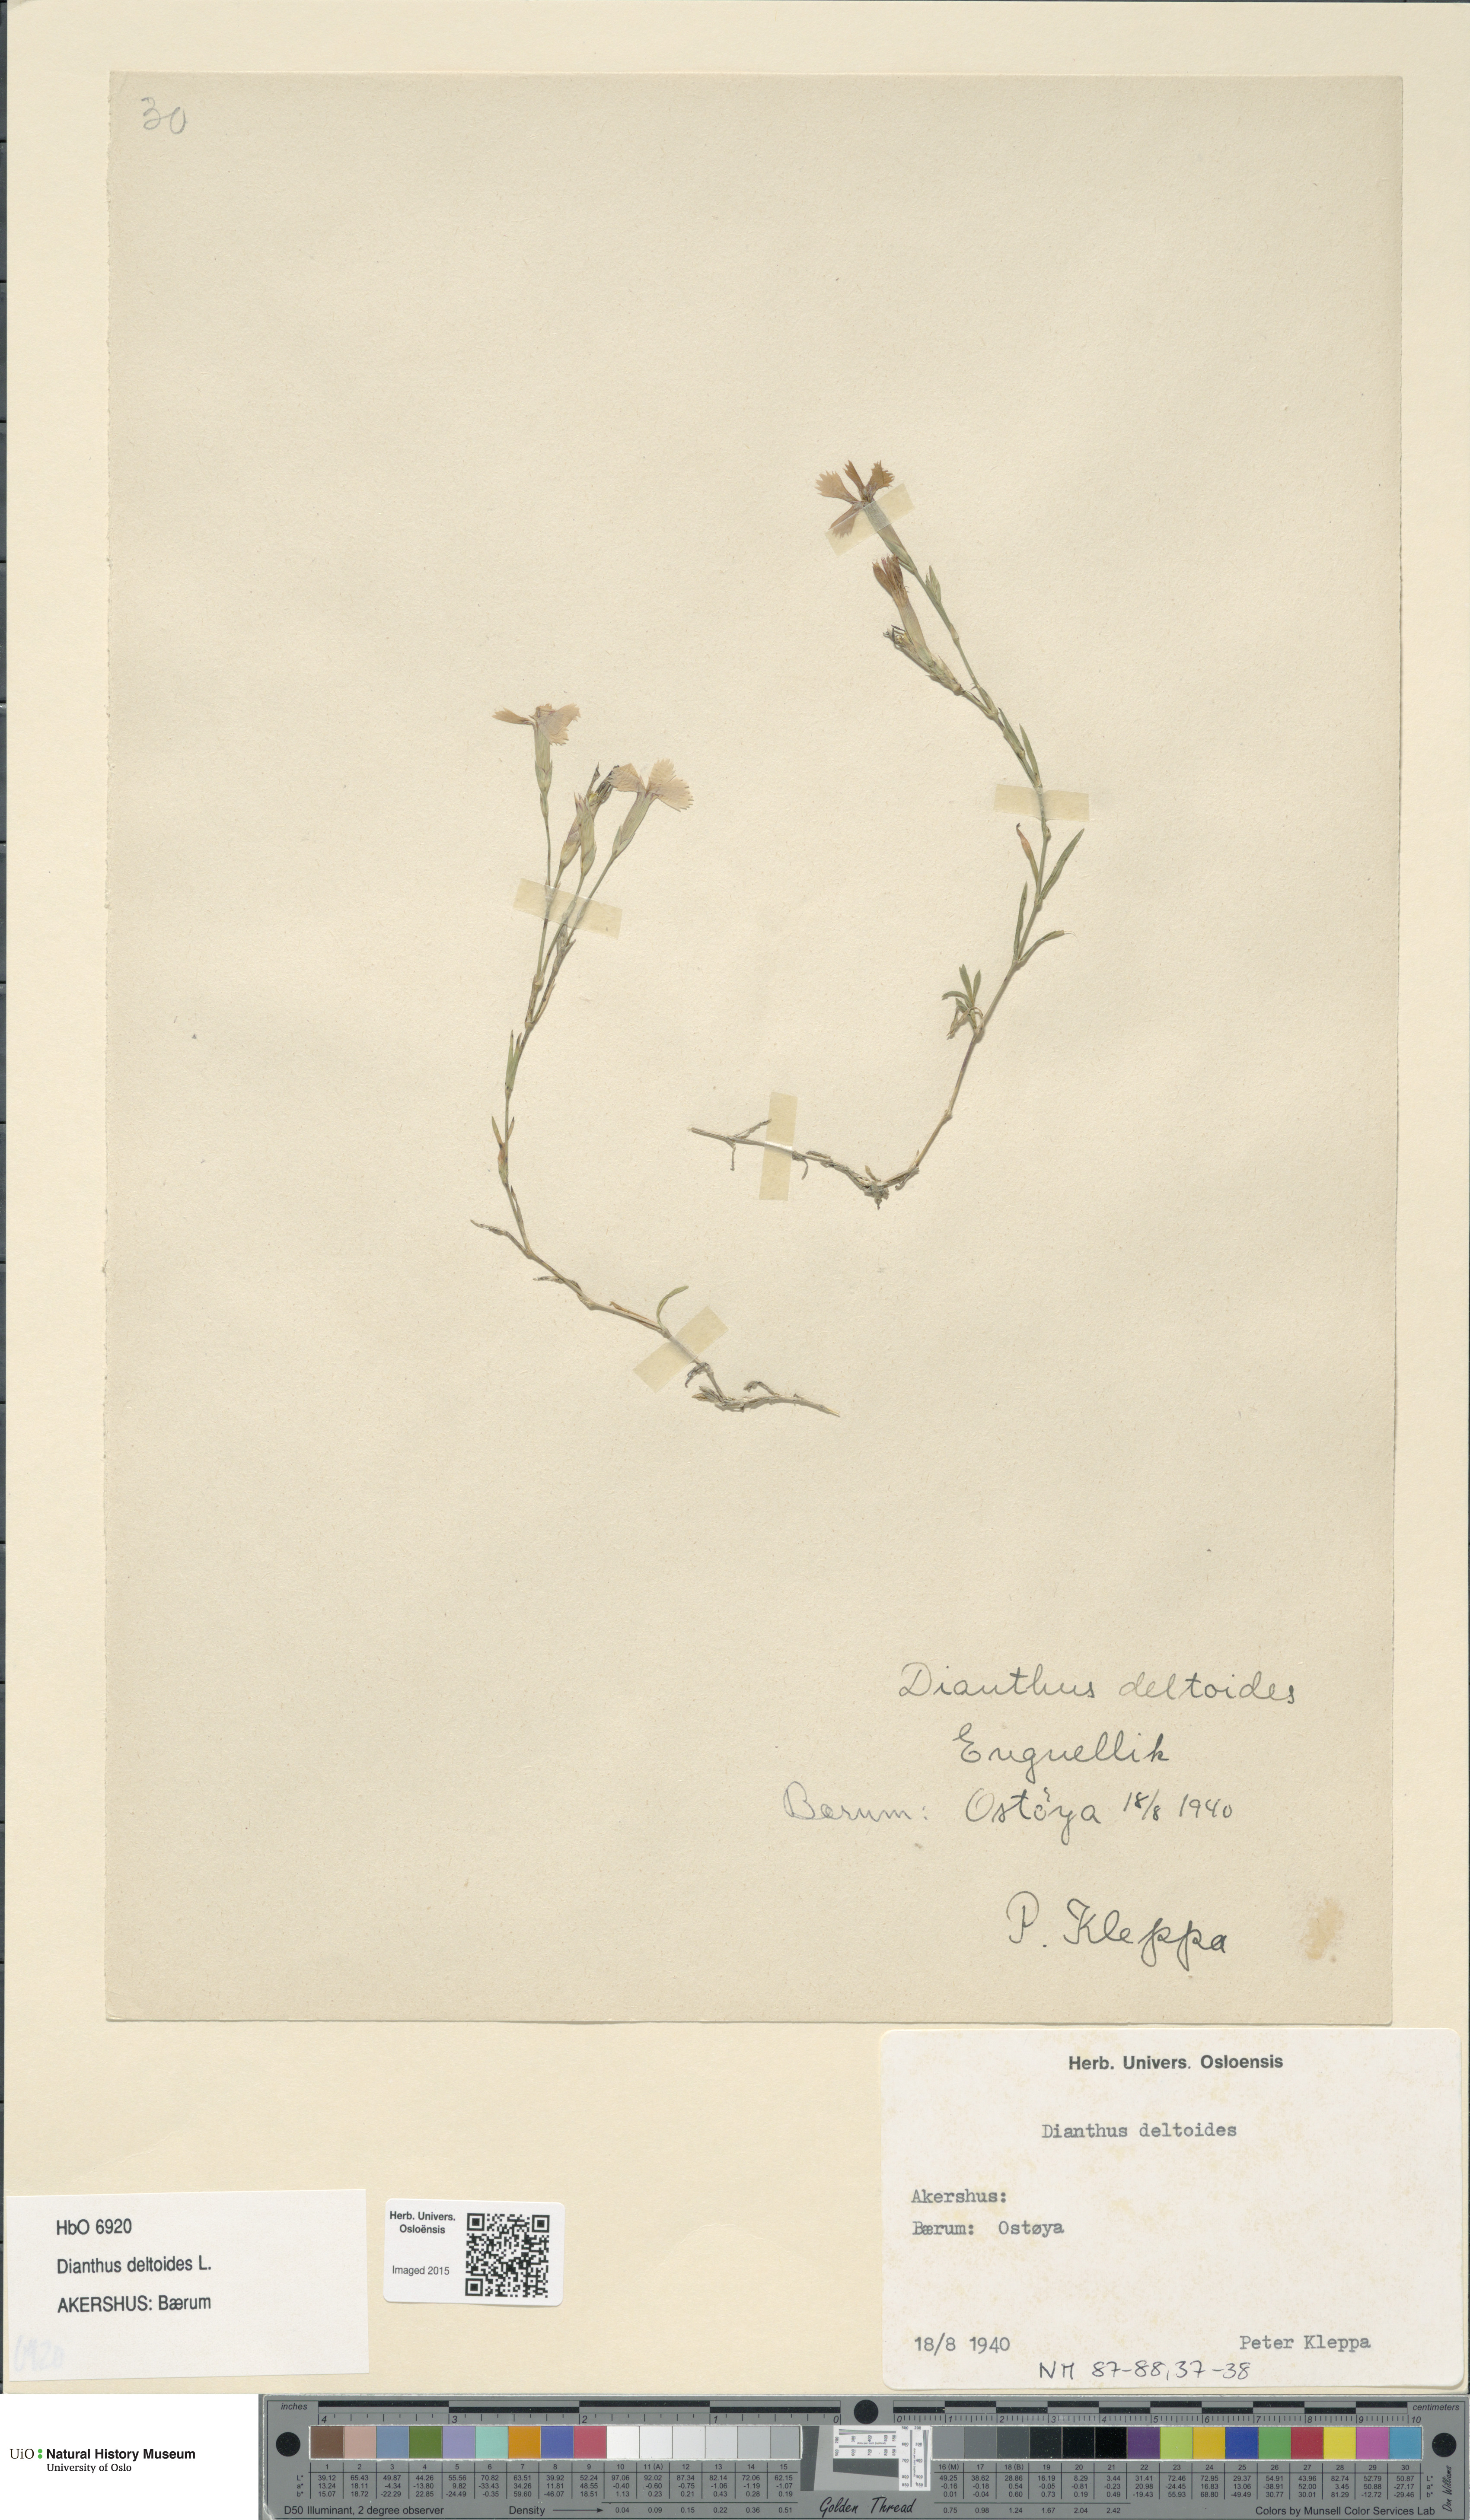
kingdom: Plantae
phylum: Tracheophyta
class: Magnoliopsida
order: Caryophyllales
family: Caryophyllaceae
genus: Dianthus
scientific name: Dianthus deltoides
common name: Maiden pink
